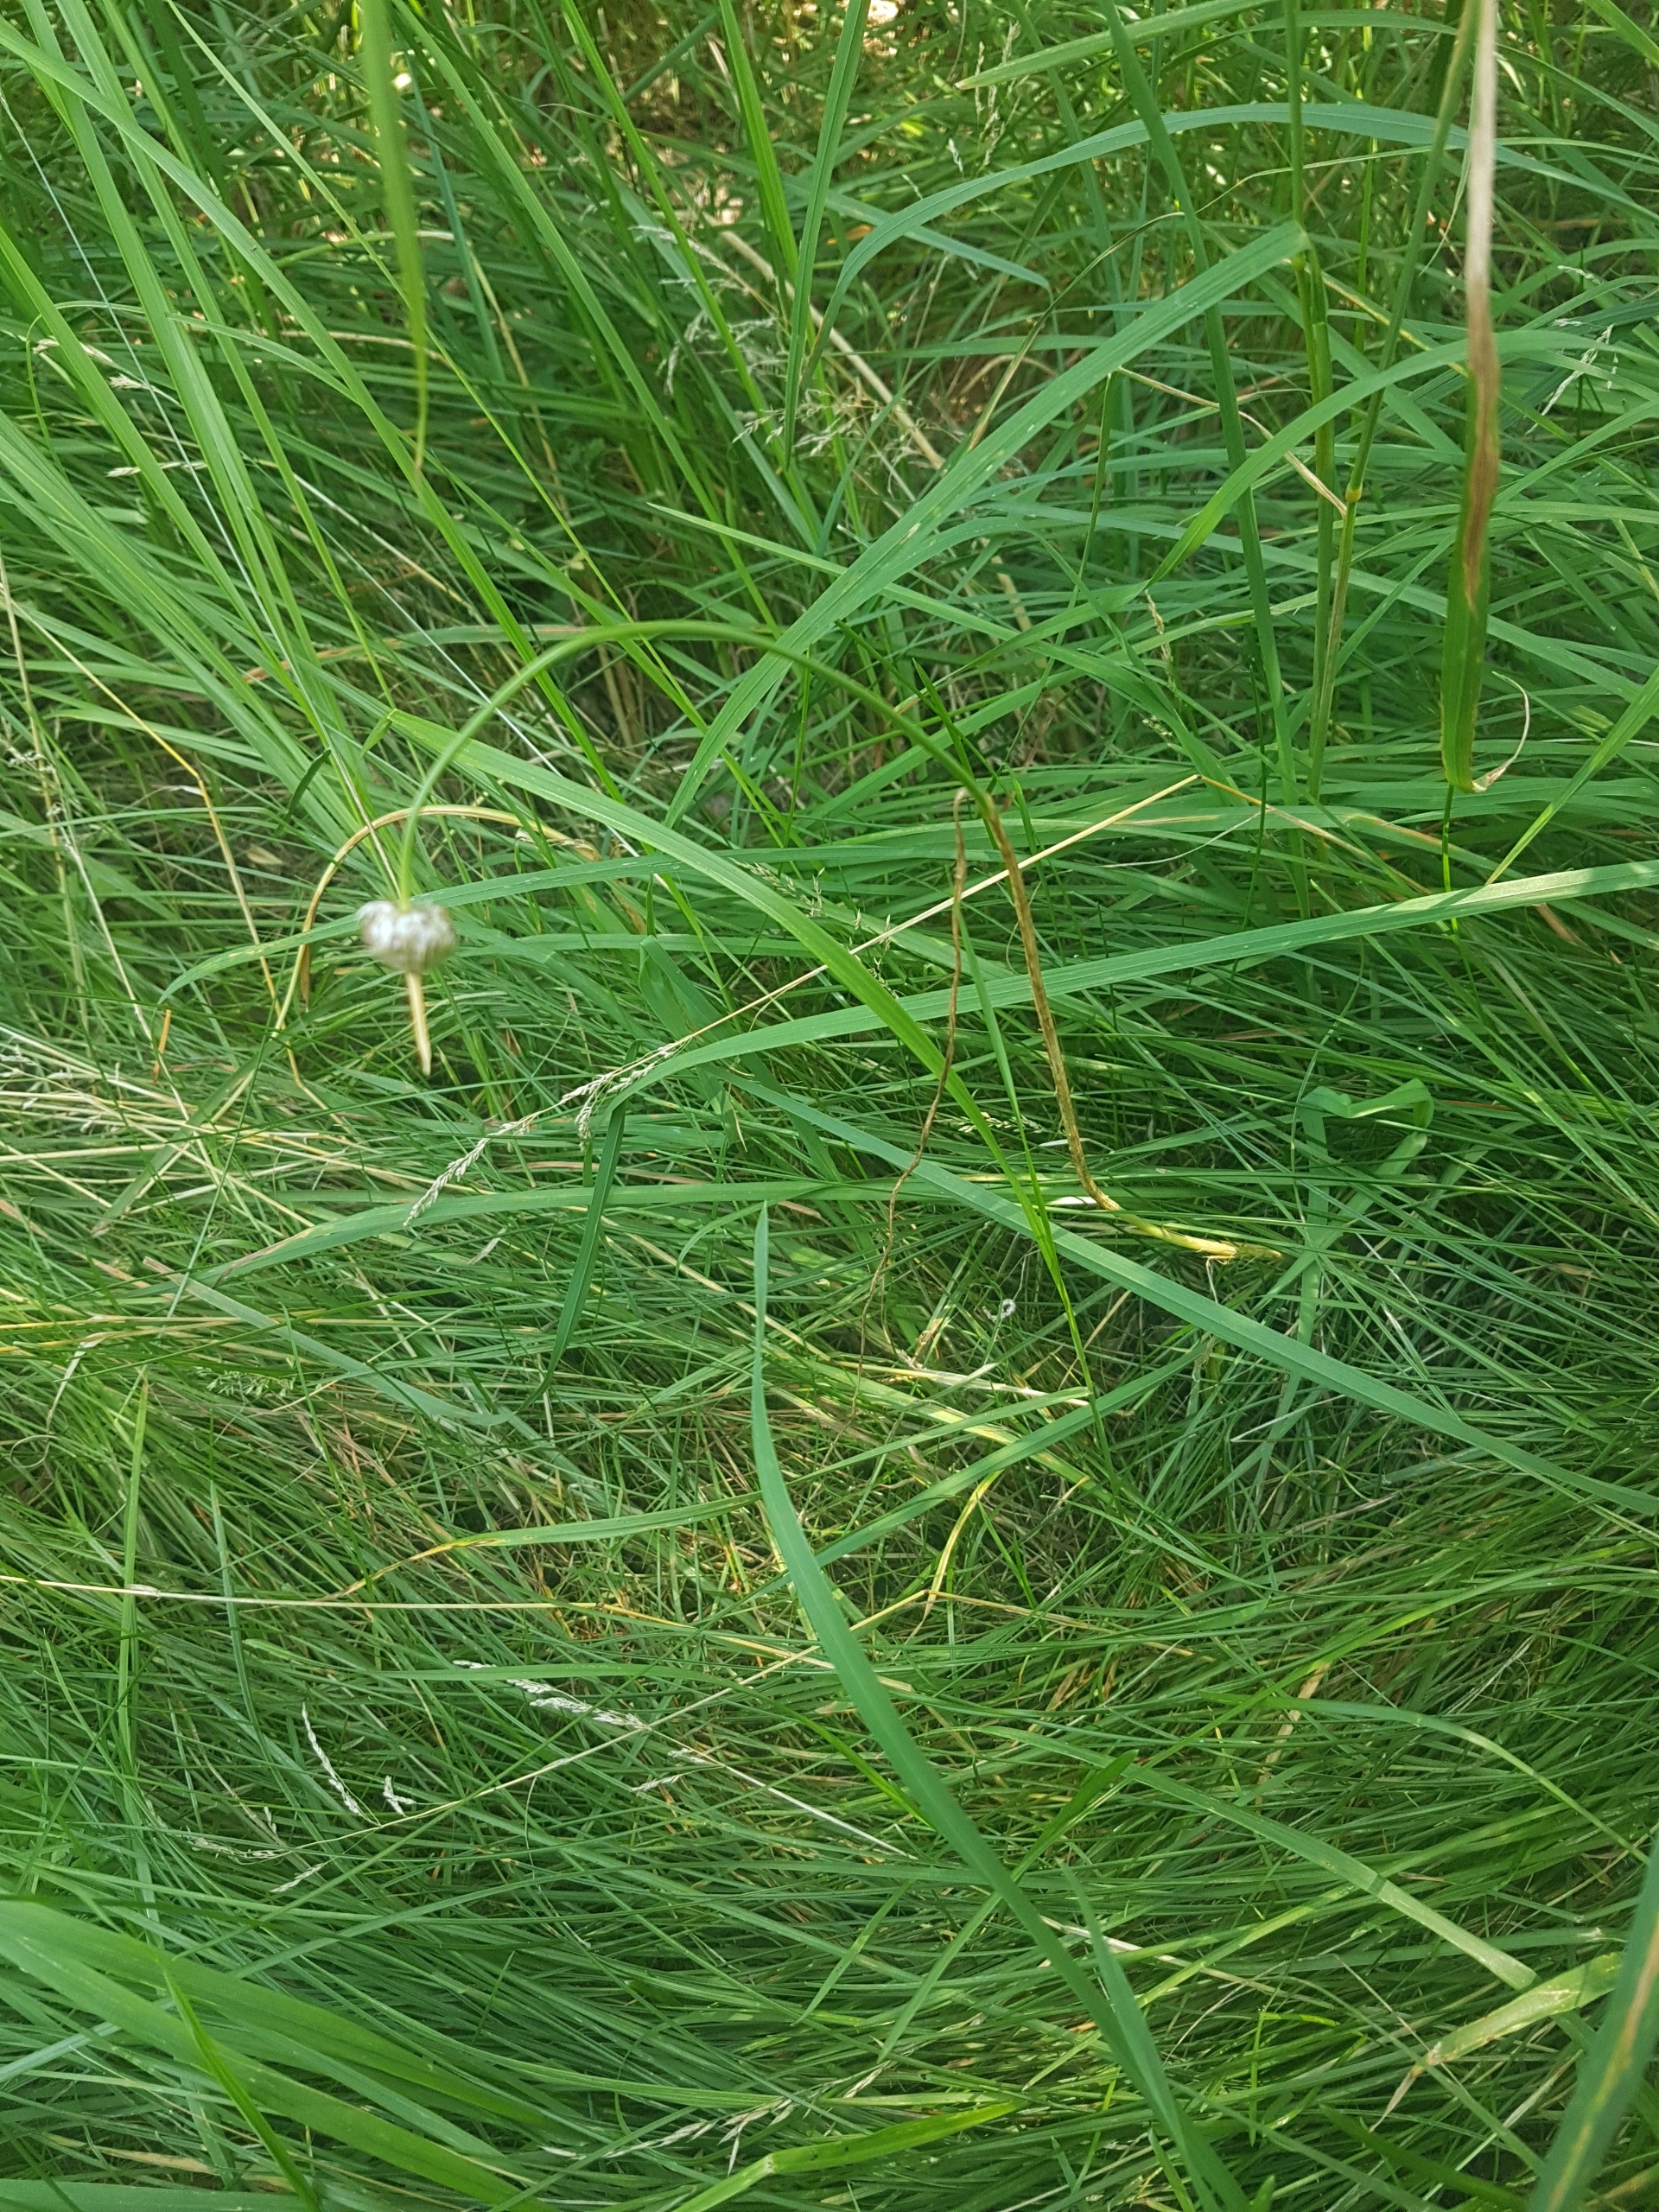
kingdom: Plantae
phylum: Tracheophyta
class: Liliopsida
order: Asparagales
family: Amaryllidaceae
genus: Allium
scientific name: Allium vineale
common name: Sand-løg
